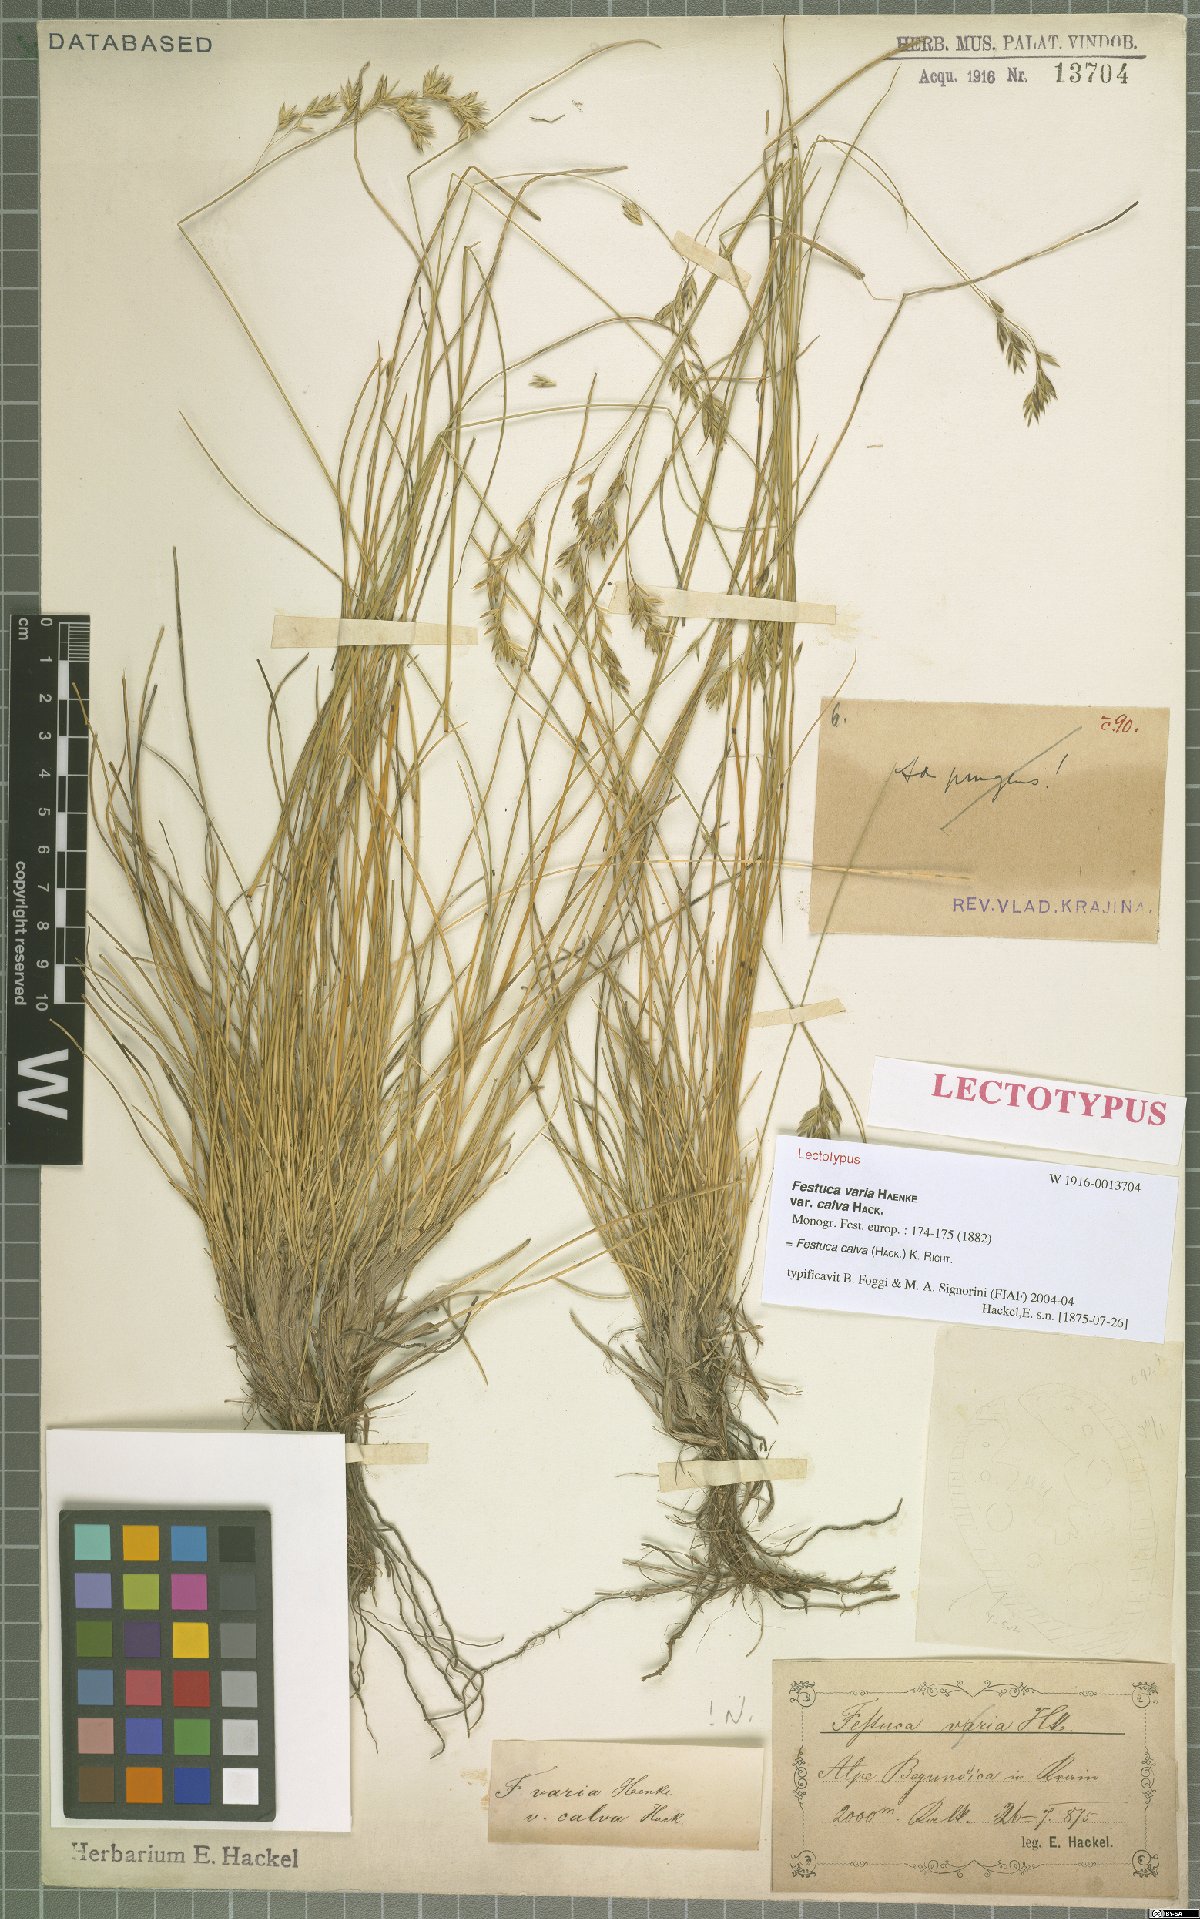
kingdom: Plantae
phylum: Tracheophyta
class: Liliopsida
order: Poales
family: Poaceae
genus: Festuca
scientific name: Festuca calva
